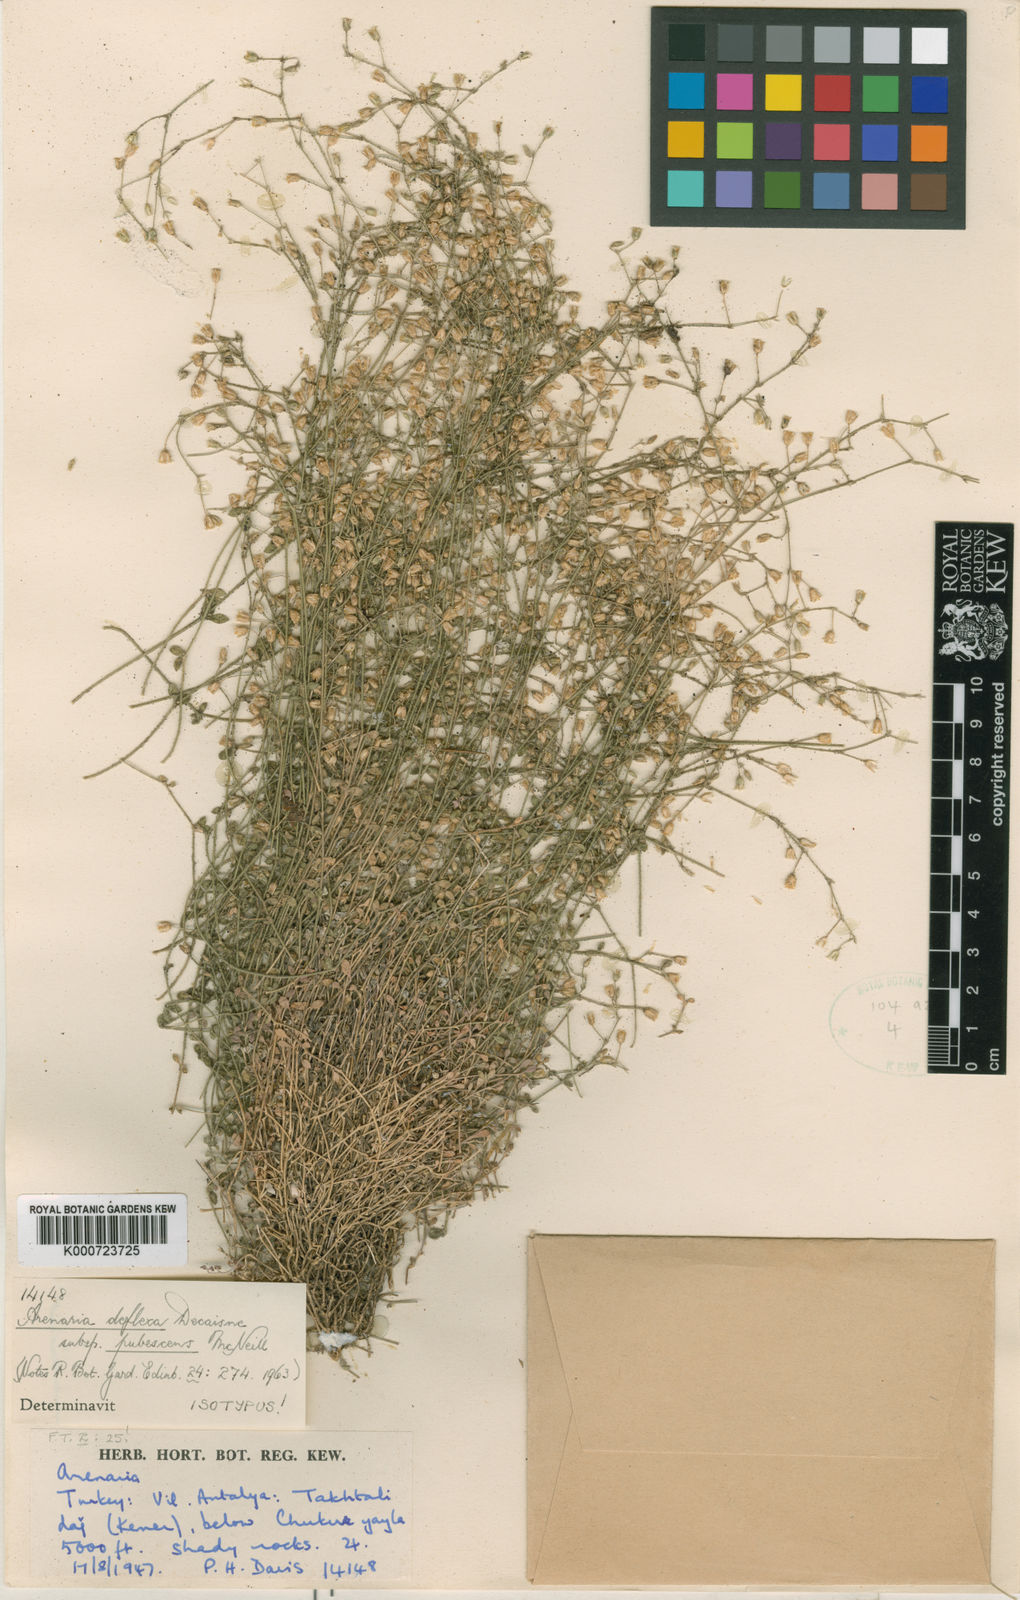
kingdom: Plantae
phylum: Tracheophyta
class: Magnoliopsida
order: Caryophyllales
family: Caryophyllaceae
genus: Arenaria
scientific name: Arenaria deflexa
